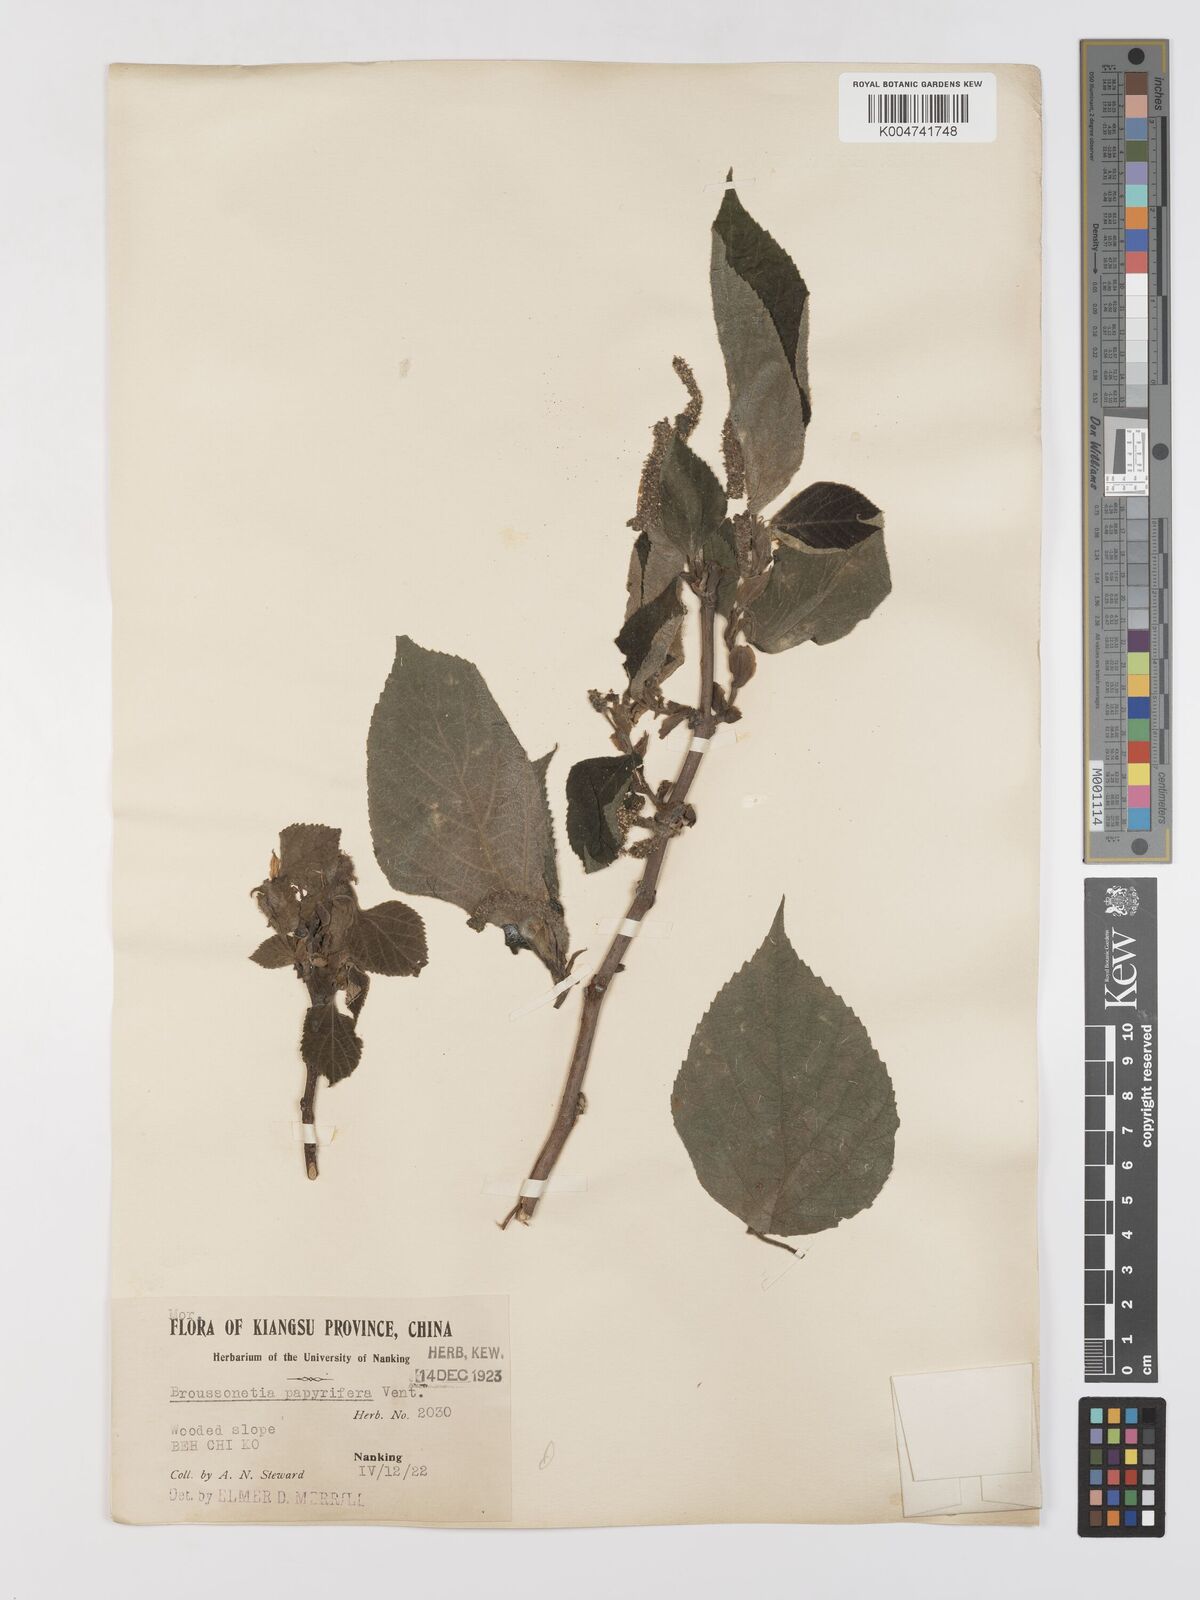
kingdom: Plantae
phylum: Tracheophyta
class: Magnoliopsida
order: Rosales
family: Moraceae
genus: Broussonetia
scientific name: Broussonetia
